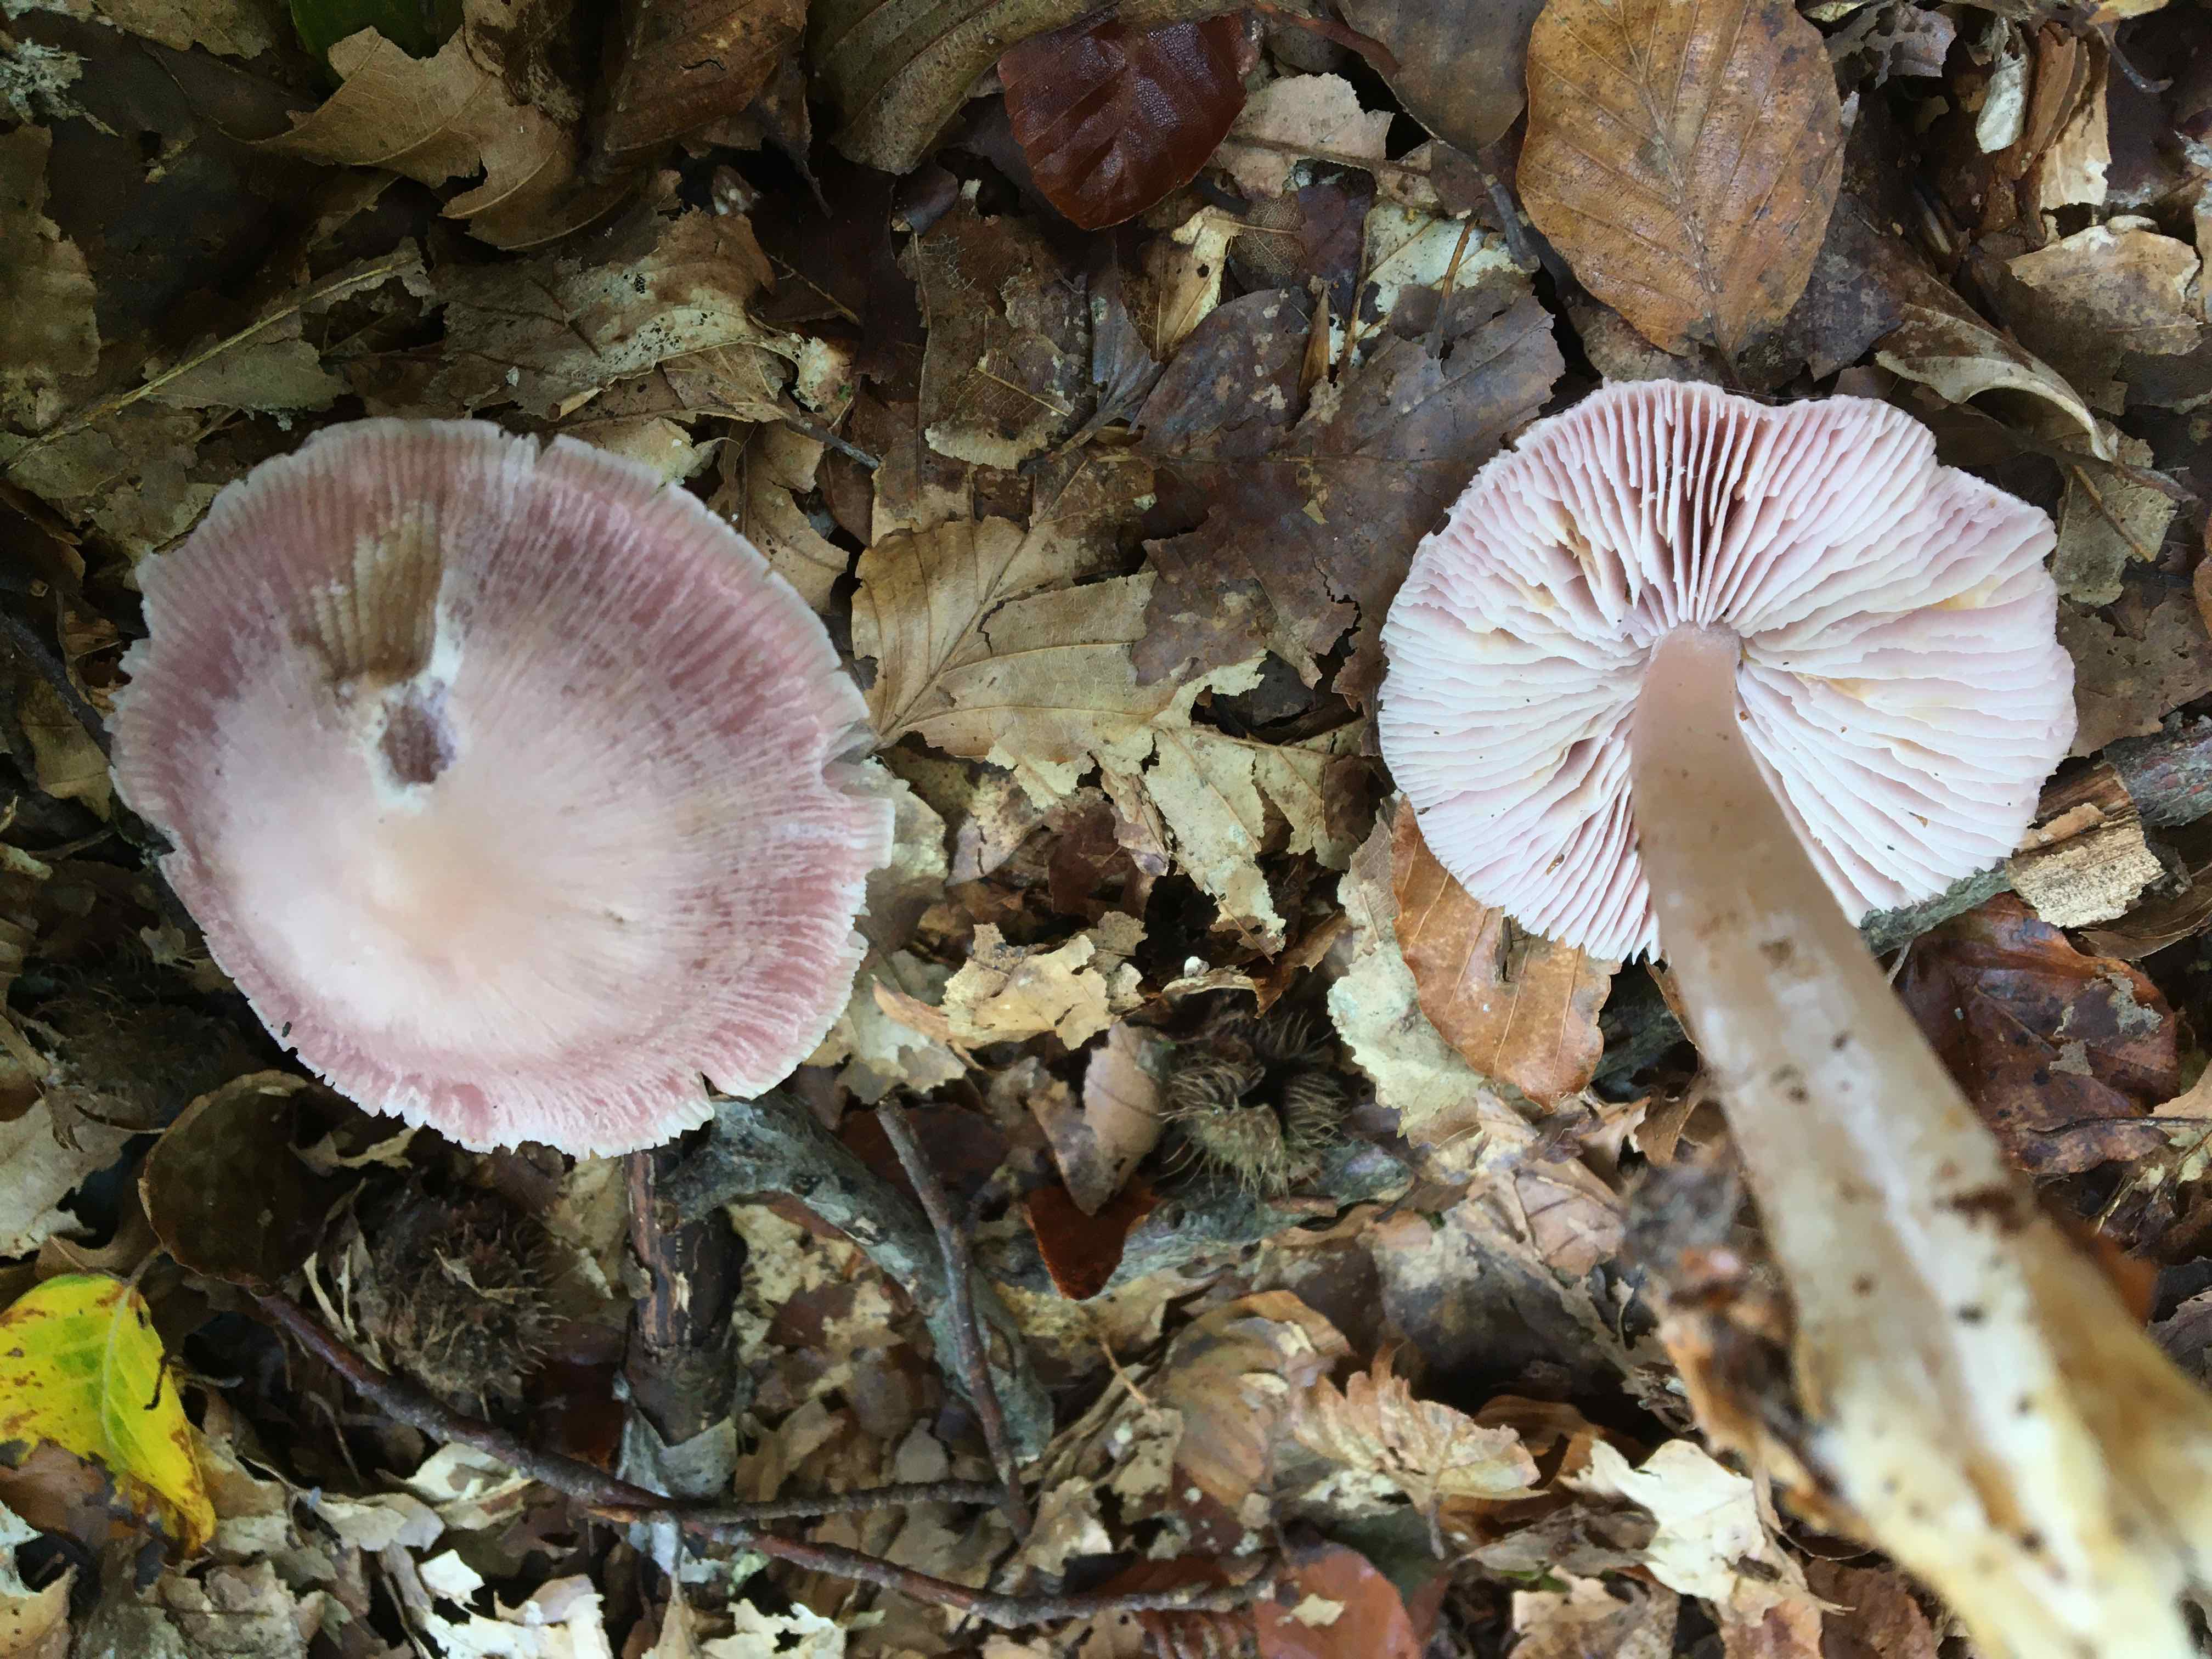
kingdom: Fungi
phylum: Basidiomycota
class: Agaricomycetes
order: Agaricales
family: Mycenaceae
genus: Mycena
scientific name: Mycena rosea
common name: rosa huesvamp
